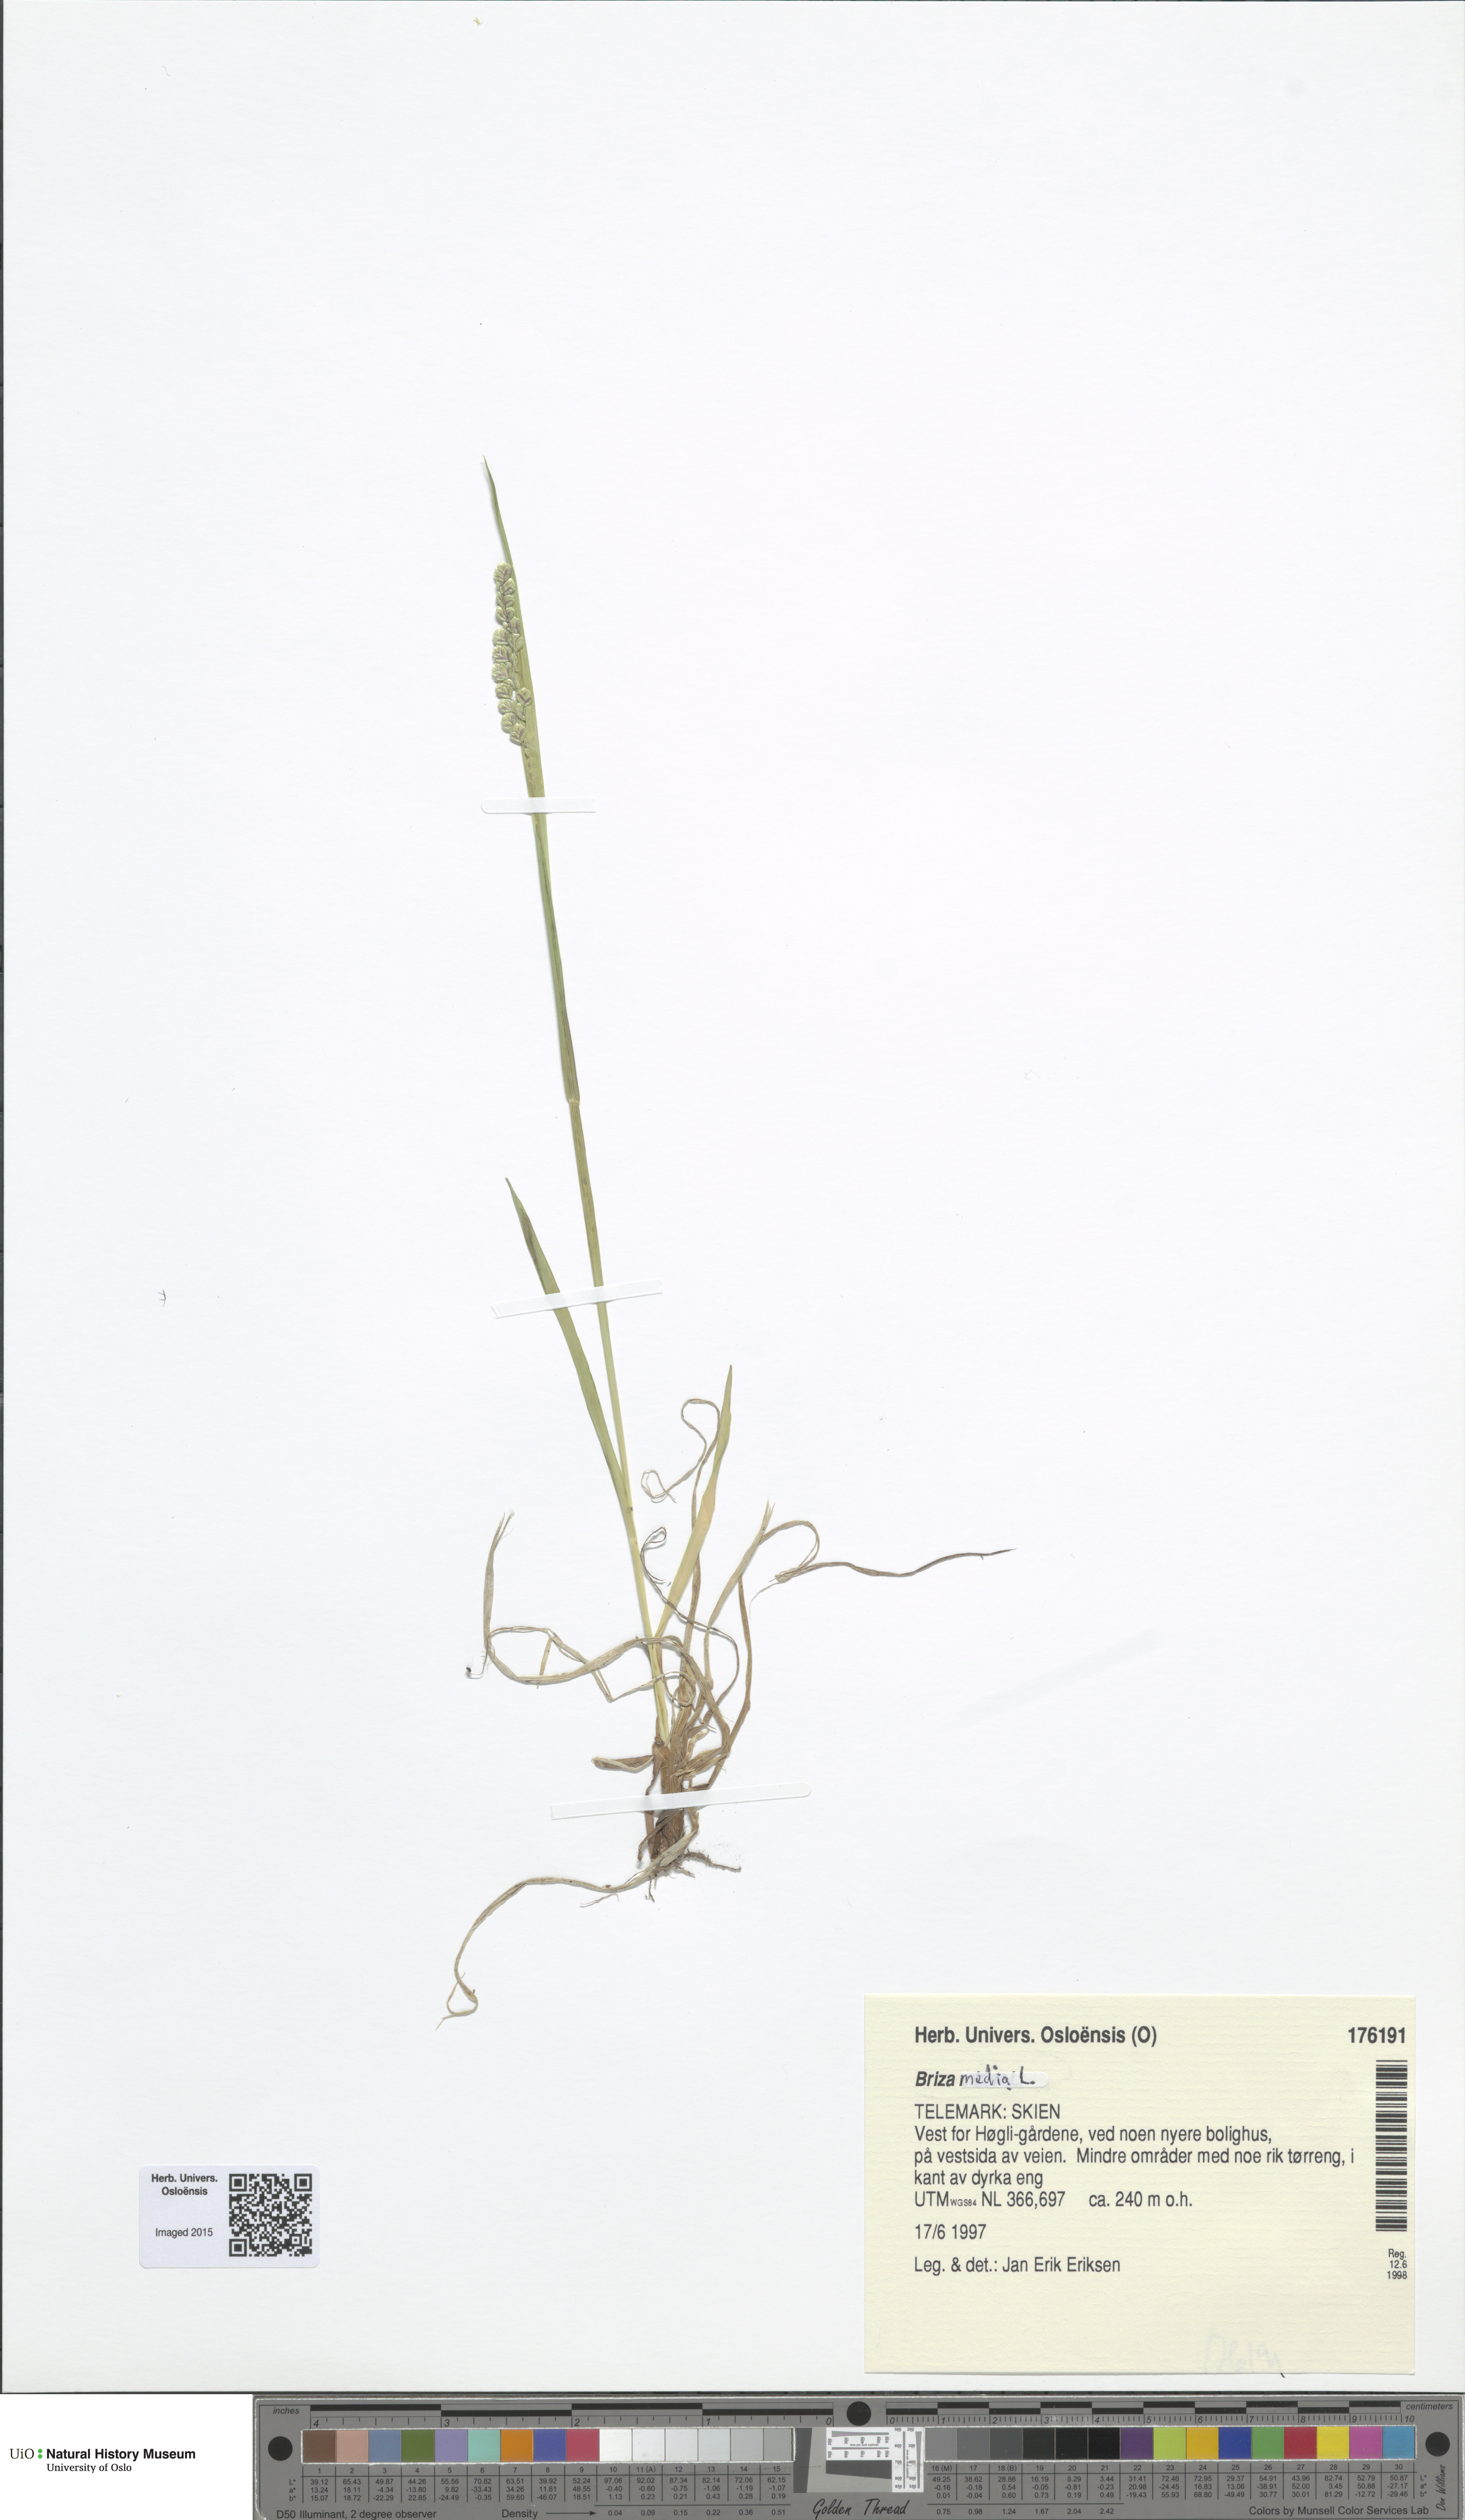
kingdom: Plantae
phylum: Tracheophyta
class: Liliopsida
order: Poales
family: Poaceae
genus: Briza
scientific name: Briza media
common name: Quaking grass
